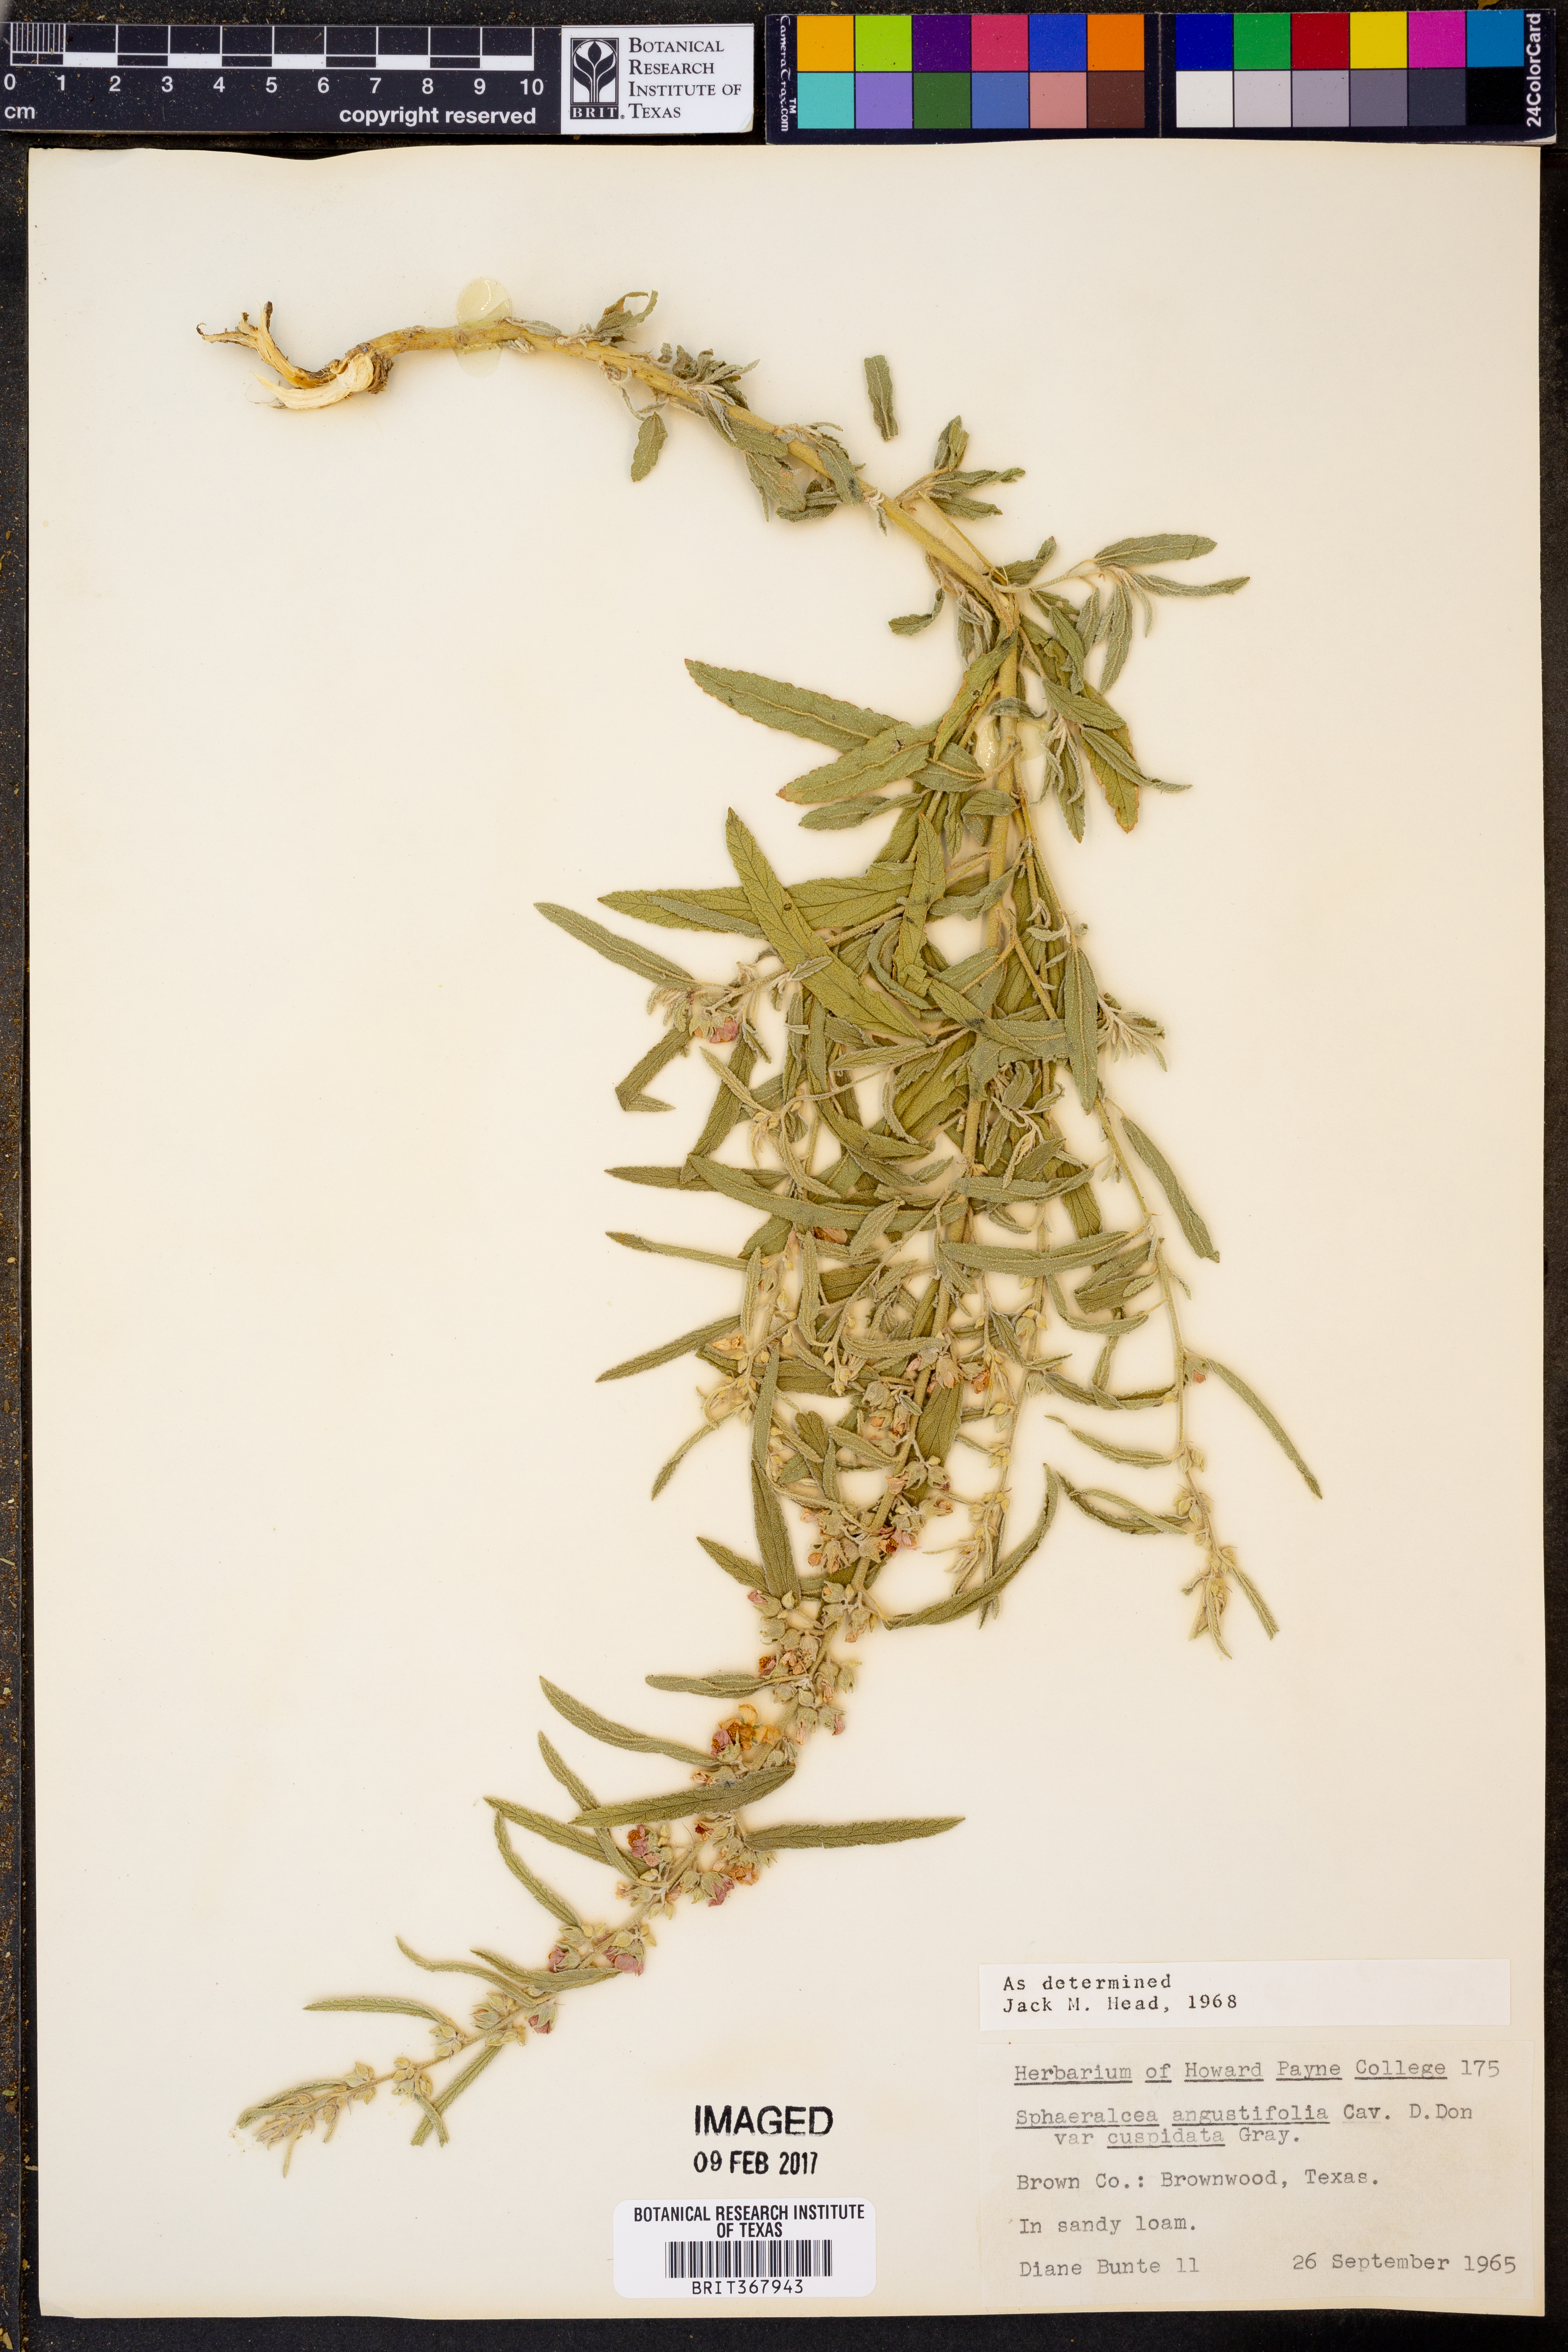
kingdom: Plantae
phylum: Tracheophyta
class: Magnoliopsida
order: Malvales
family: Malvaceae
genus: Sphaeralcea
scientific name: Sphaeralcea angustifolia
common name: Copper globe-mallow
